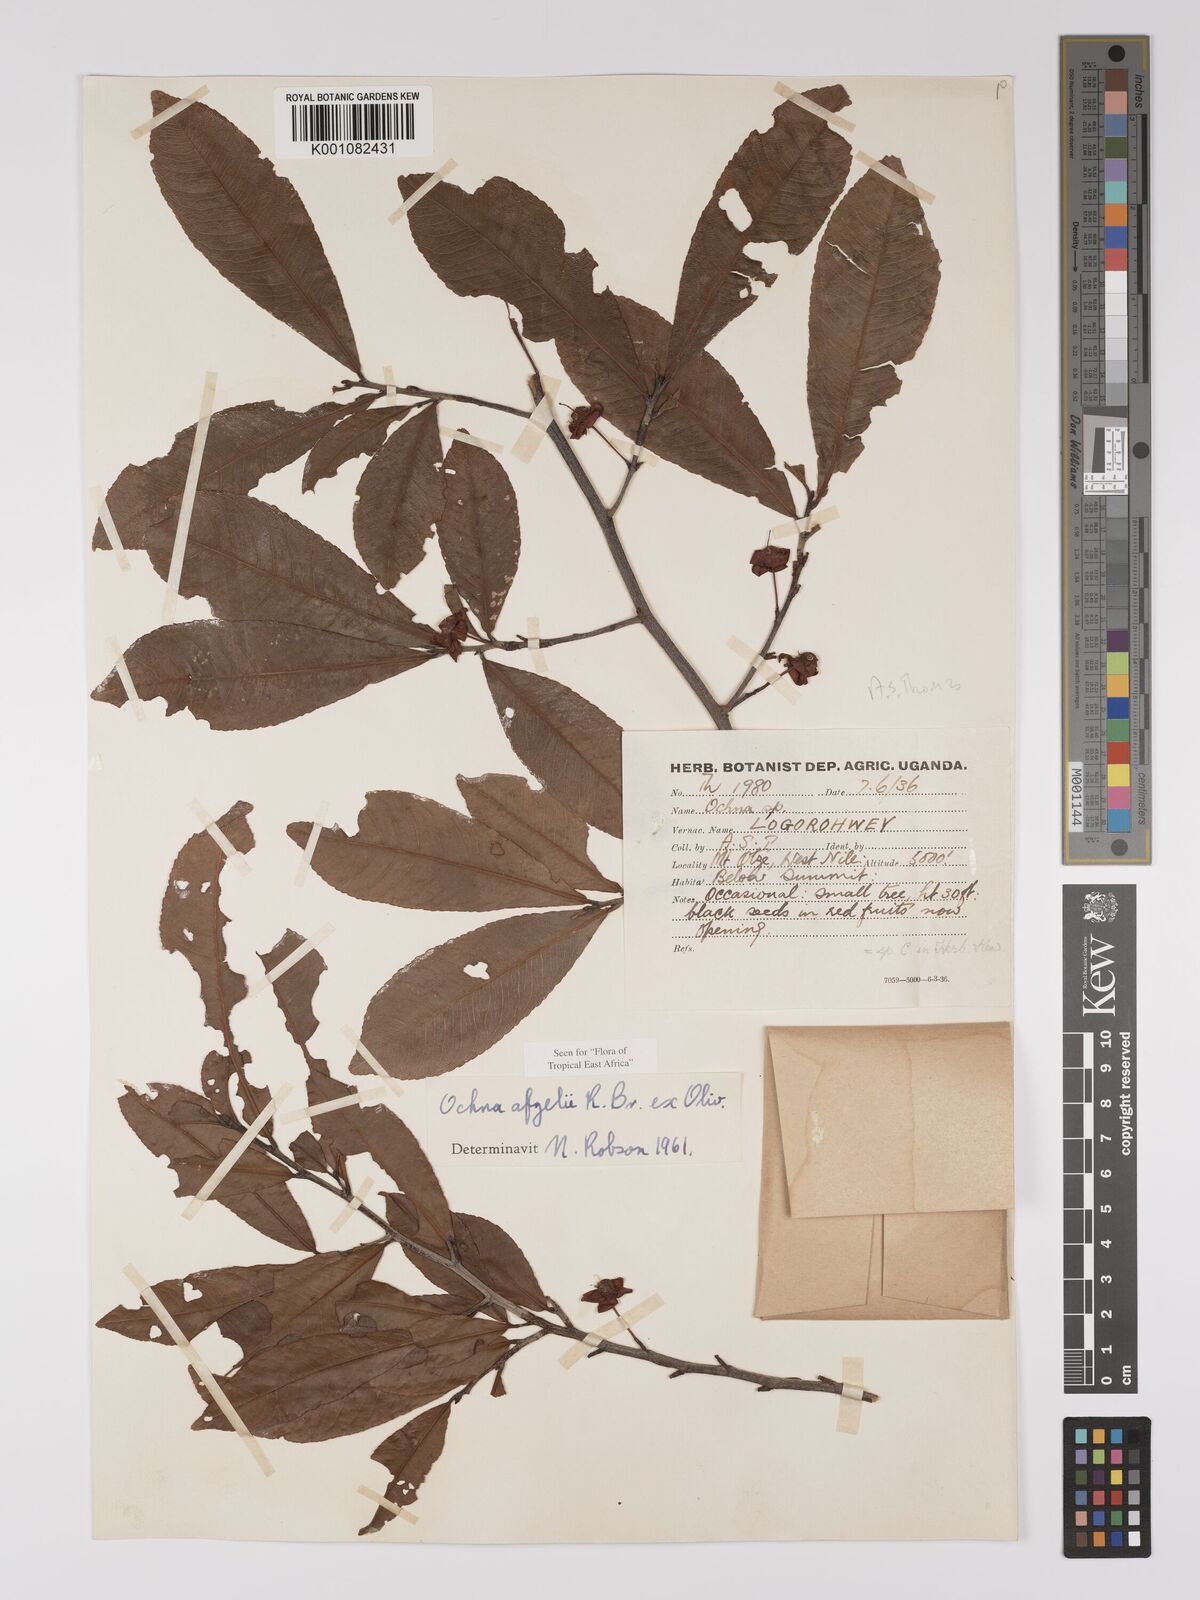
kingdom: Plantae
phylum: Tracheophyta
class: Magnoliopsida
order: Malpighiales
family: Ochnaceae
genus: Ochna
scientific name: Ochna afzelii
